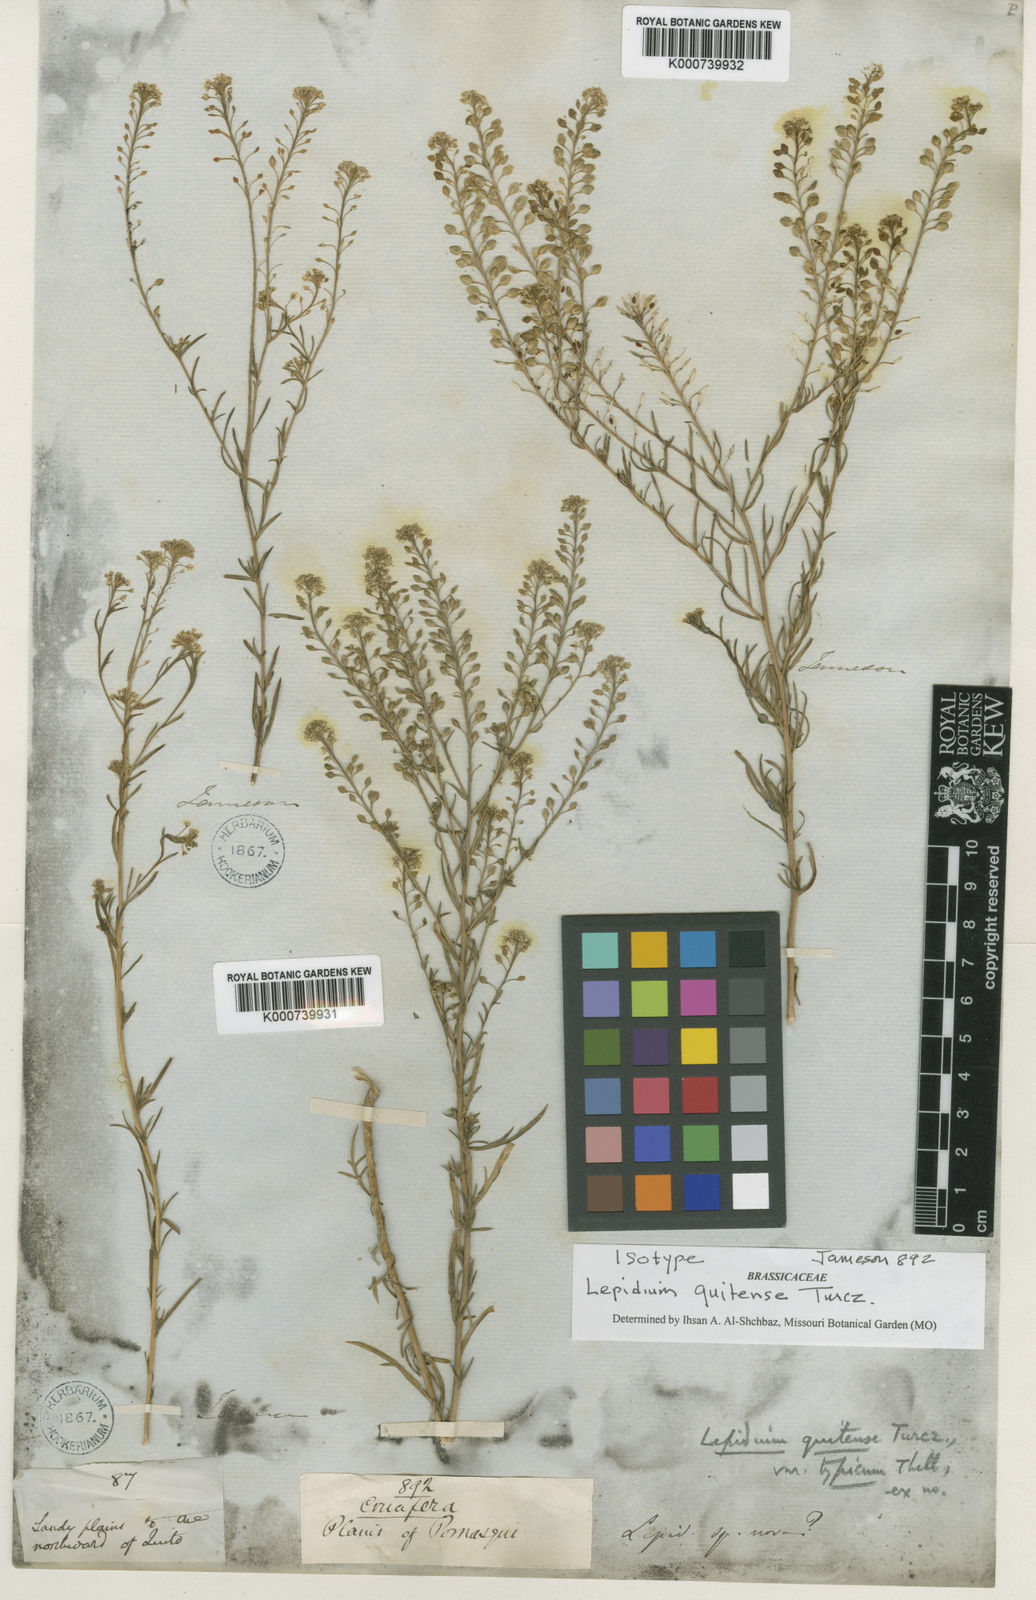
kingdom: Plantae
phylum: Tracheophyta
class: Magnoliopsida
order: Brassicales
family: Brassicaceae
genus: Lepidium
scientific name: Lepidium quitense
